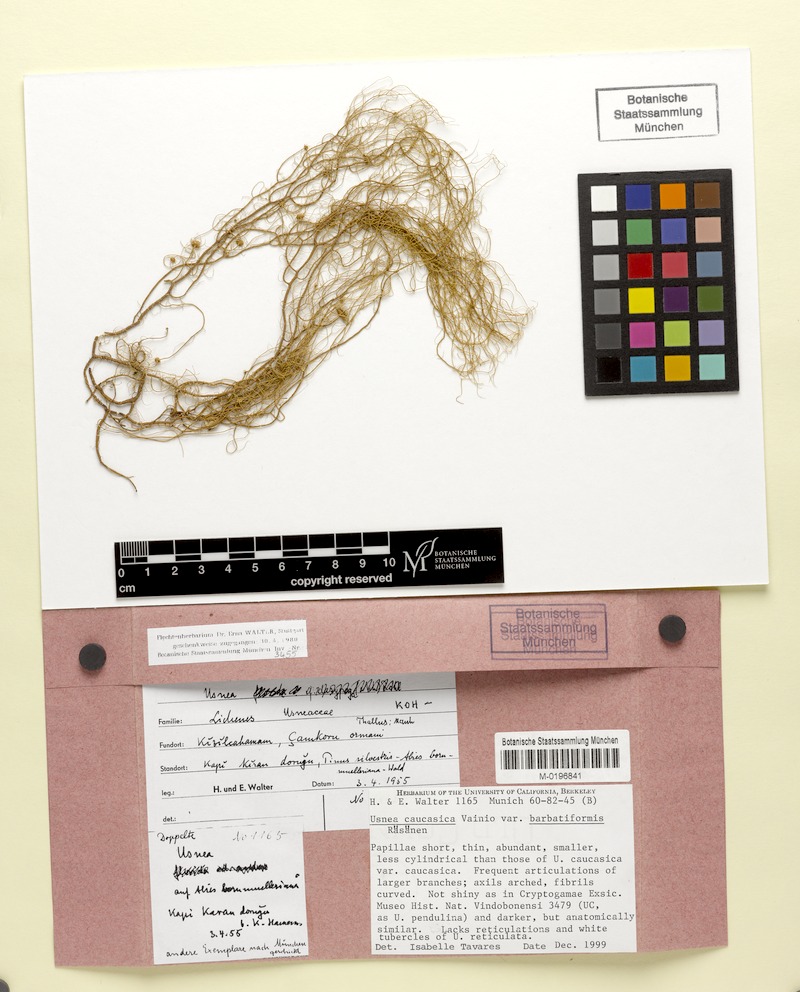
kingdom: Fungi
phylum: Ascomycota
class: Lecanoromycetes
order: Lecanorales
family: Parmeliaceae
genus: Usnea
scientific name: Usnea dasopoga
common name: Fishbone beard lichen
